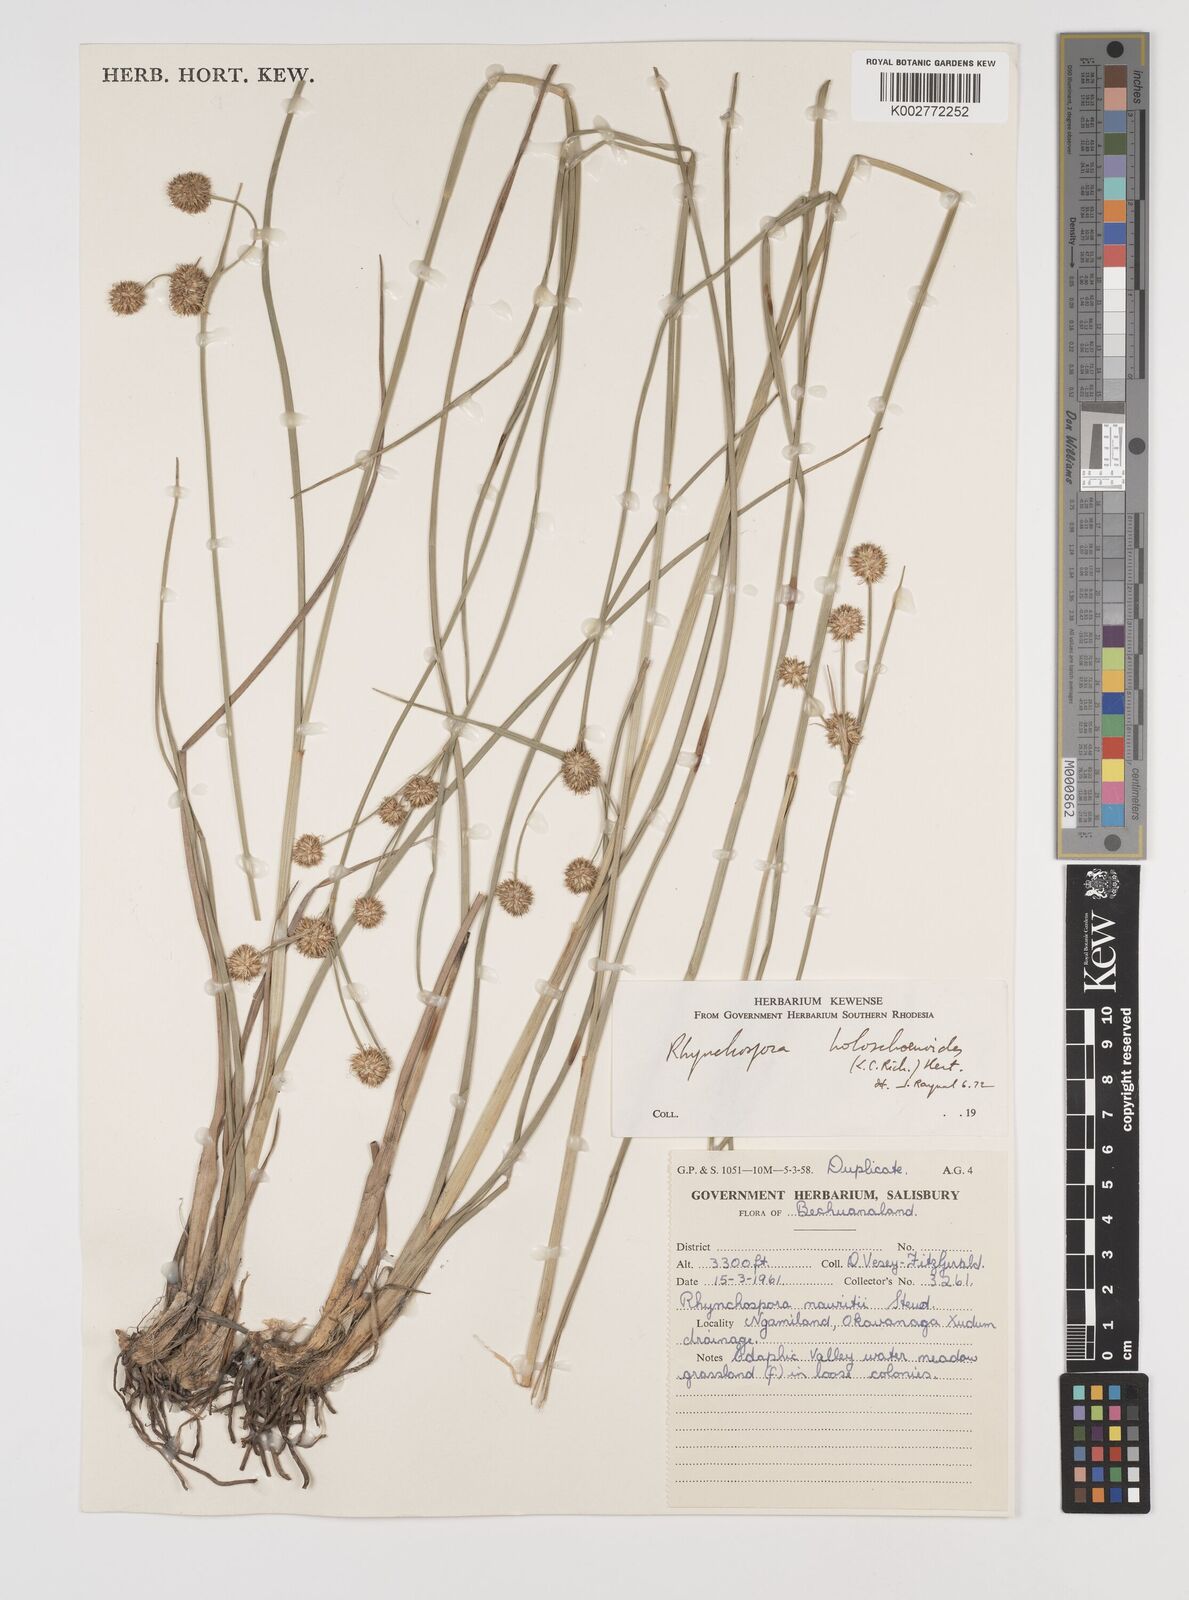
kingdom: Plantae
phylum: Tracheophyta
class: Liliopsida
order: Poales
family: Cyperaceae
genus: Rhynchospora
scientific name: Rhynchospora holoschoenoides
